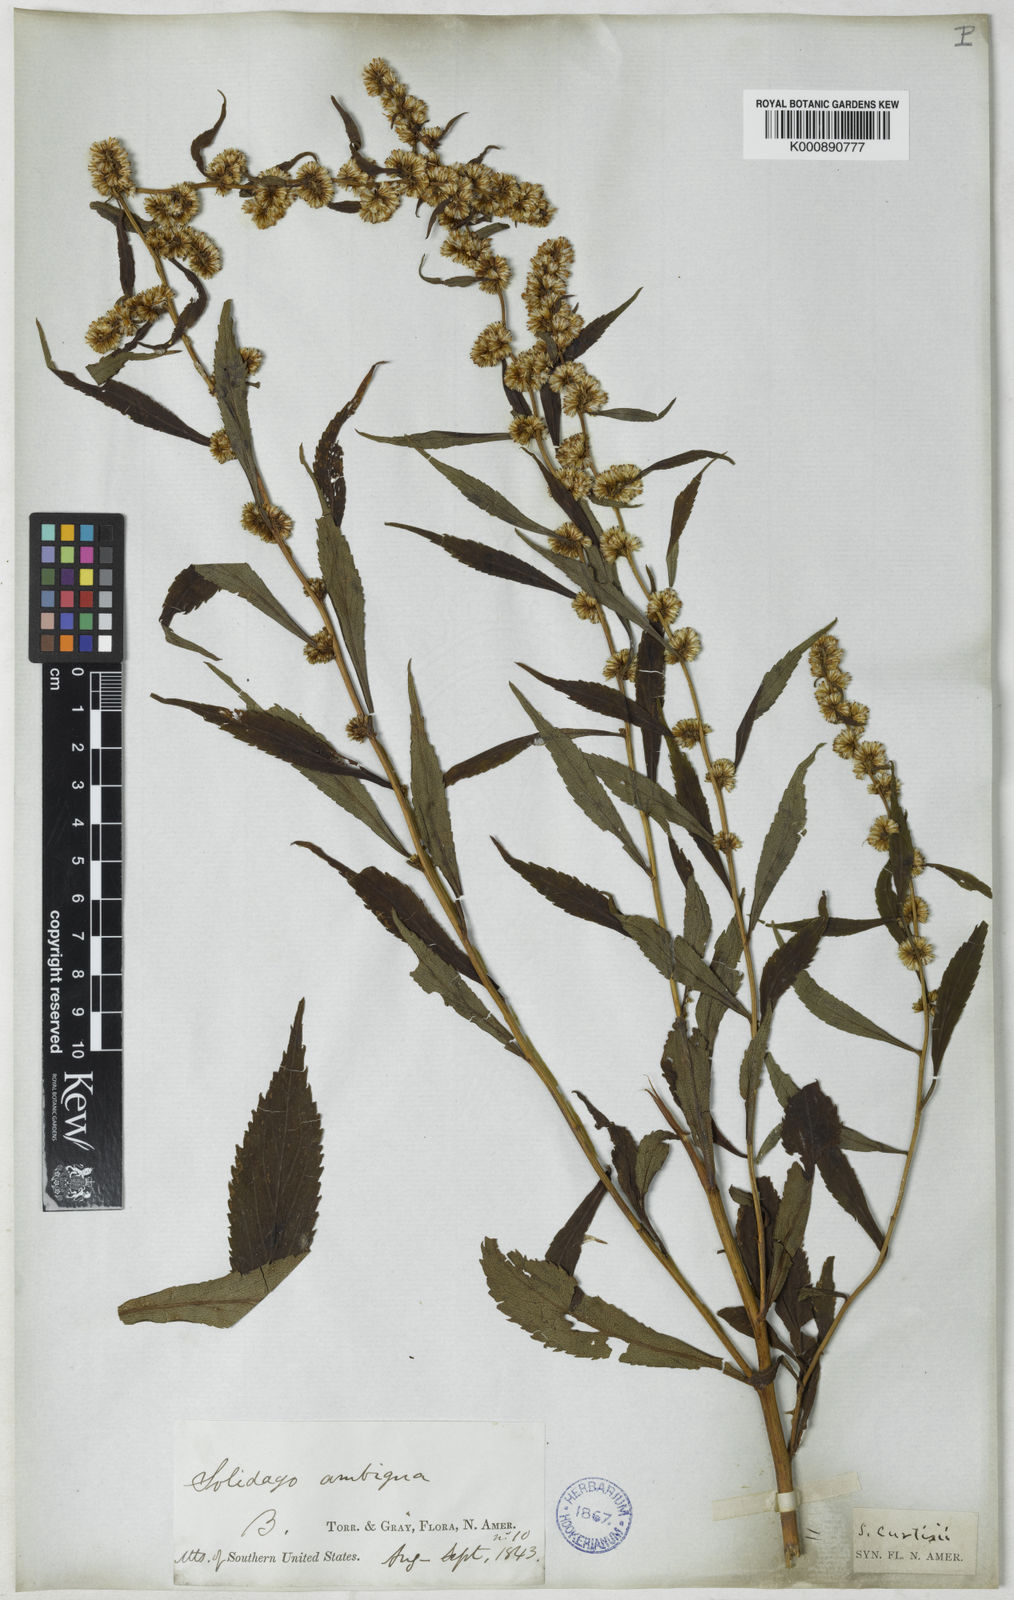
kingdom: Plantae
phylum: Tracheophyta
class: Magnoliopsida
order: Asterales
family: Asteraceae
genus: Solidago
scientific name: Solidago virgaurea
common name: Goldenrod
